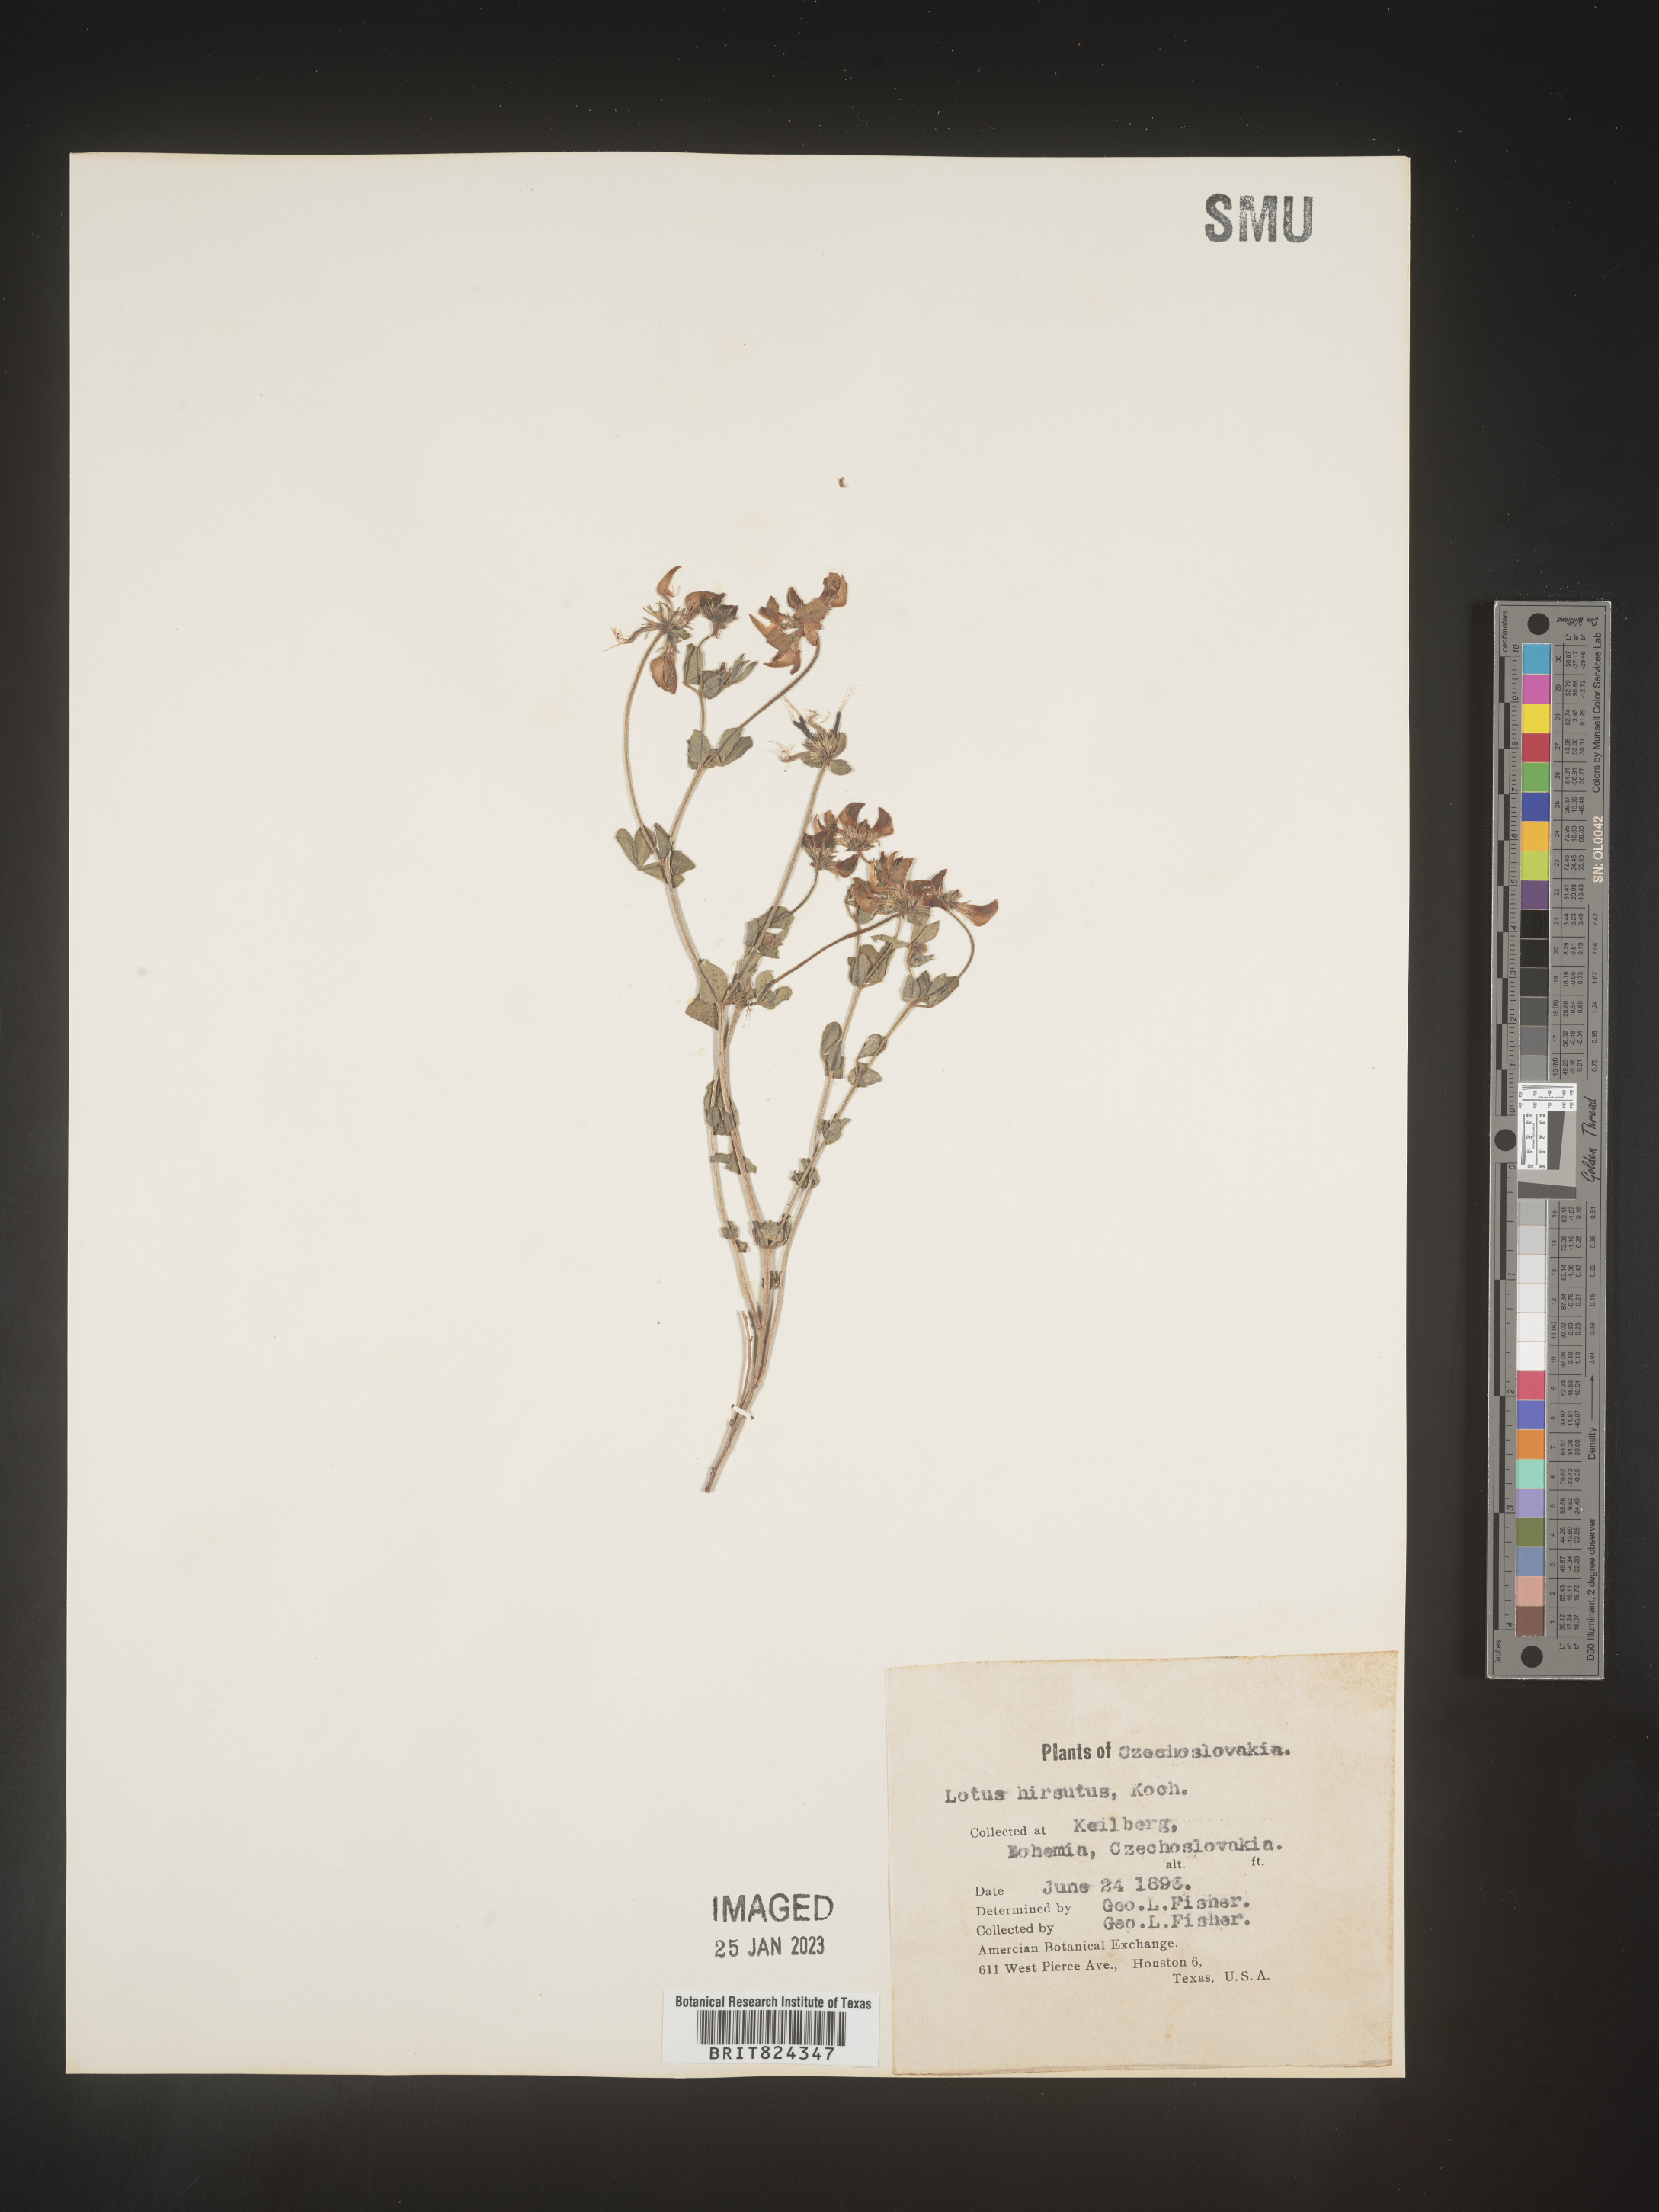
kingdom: Plantae
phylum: Tracheophyta
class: Magnoliopsida
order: Fabales
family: Fabaceae
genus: Lotus
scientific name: Lotus
